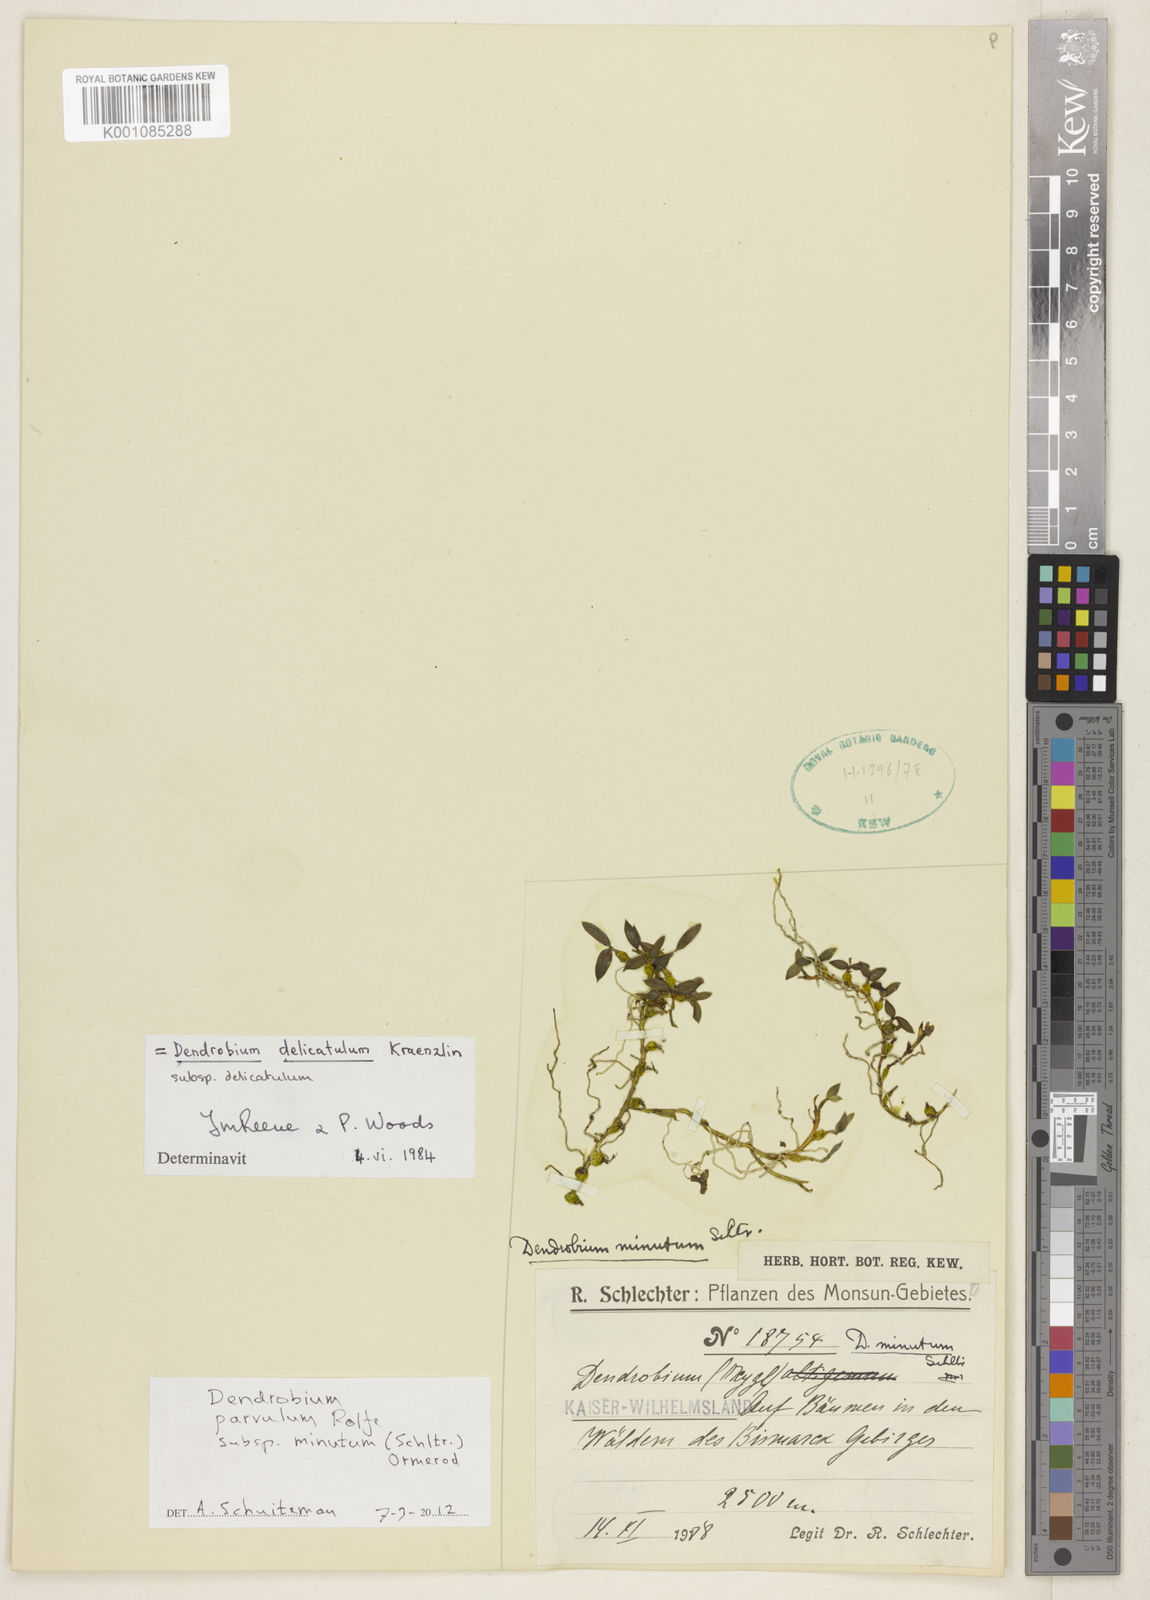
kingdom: Plantae
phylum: Tracheophyta
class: Liliopsida
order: Asparagales
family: Orchidaceae
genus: Dendrobium
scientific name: Dendrobium parvulum
